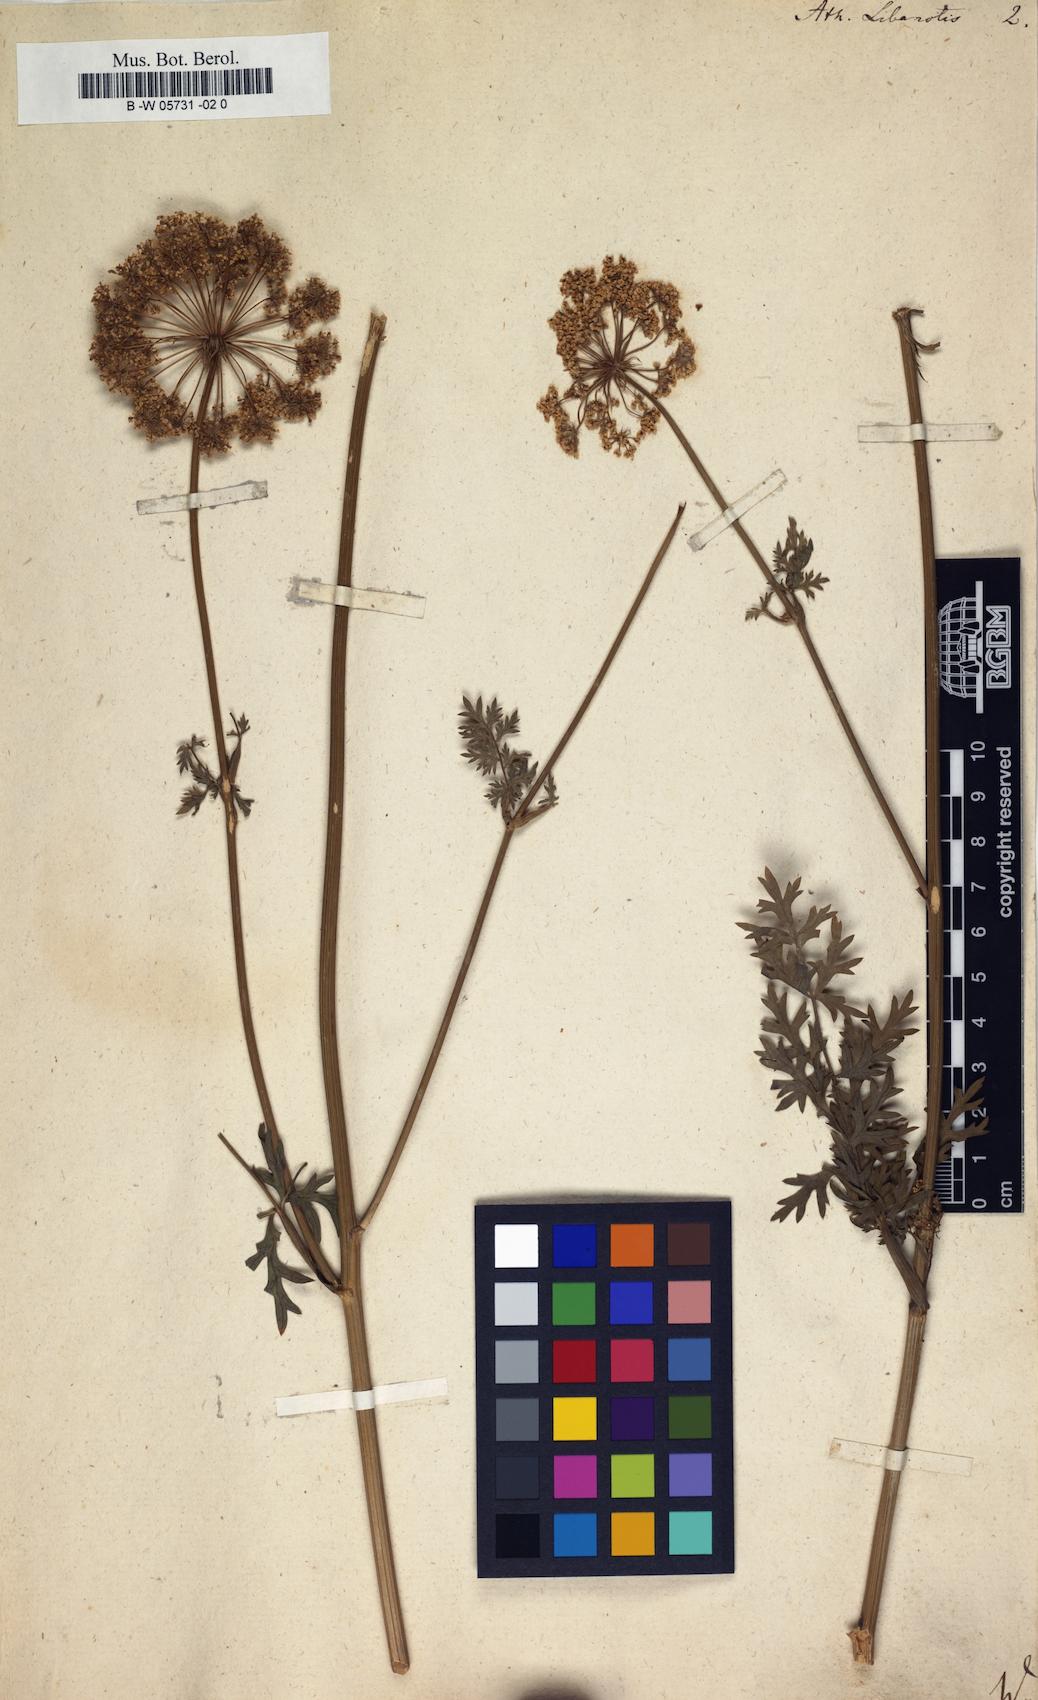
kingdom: Plantae
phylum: Tracheophyta
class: Magnoliopsida
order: Apiales
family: Apiaceae
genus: Seseli
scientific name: Seseli libanotis
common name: Mooncarrot
